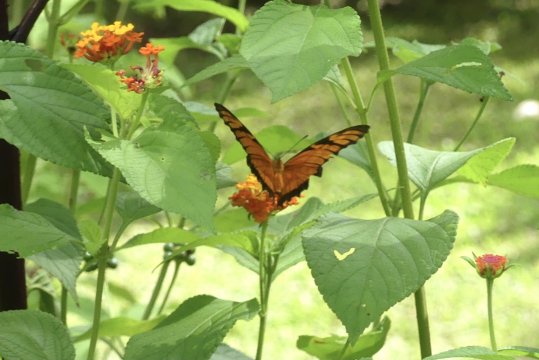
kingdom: Animalia
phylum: Arthropoda
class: Insecta
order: Lepidoptera
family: Nymphalidae
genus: Dione
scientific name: Dione juno
